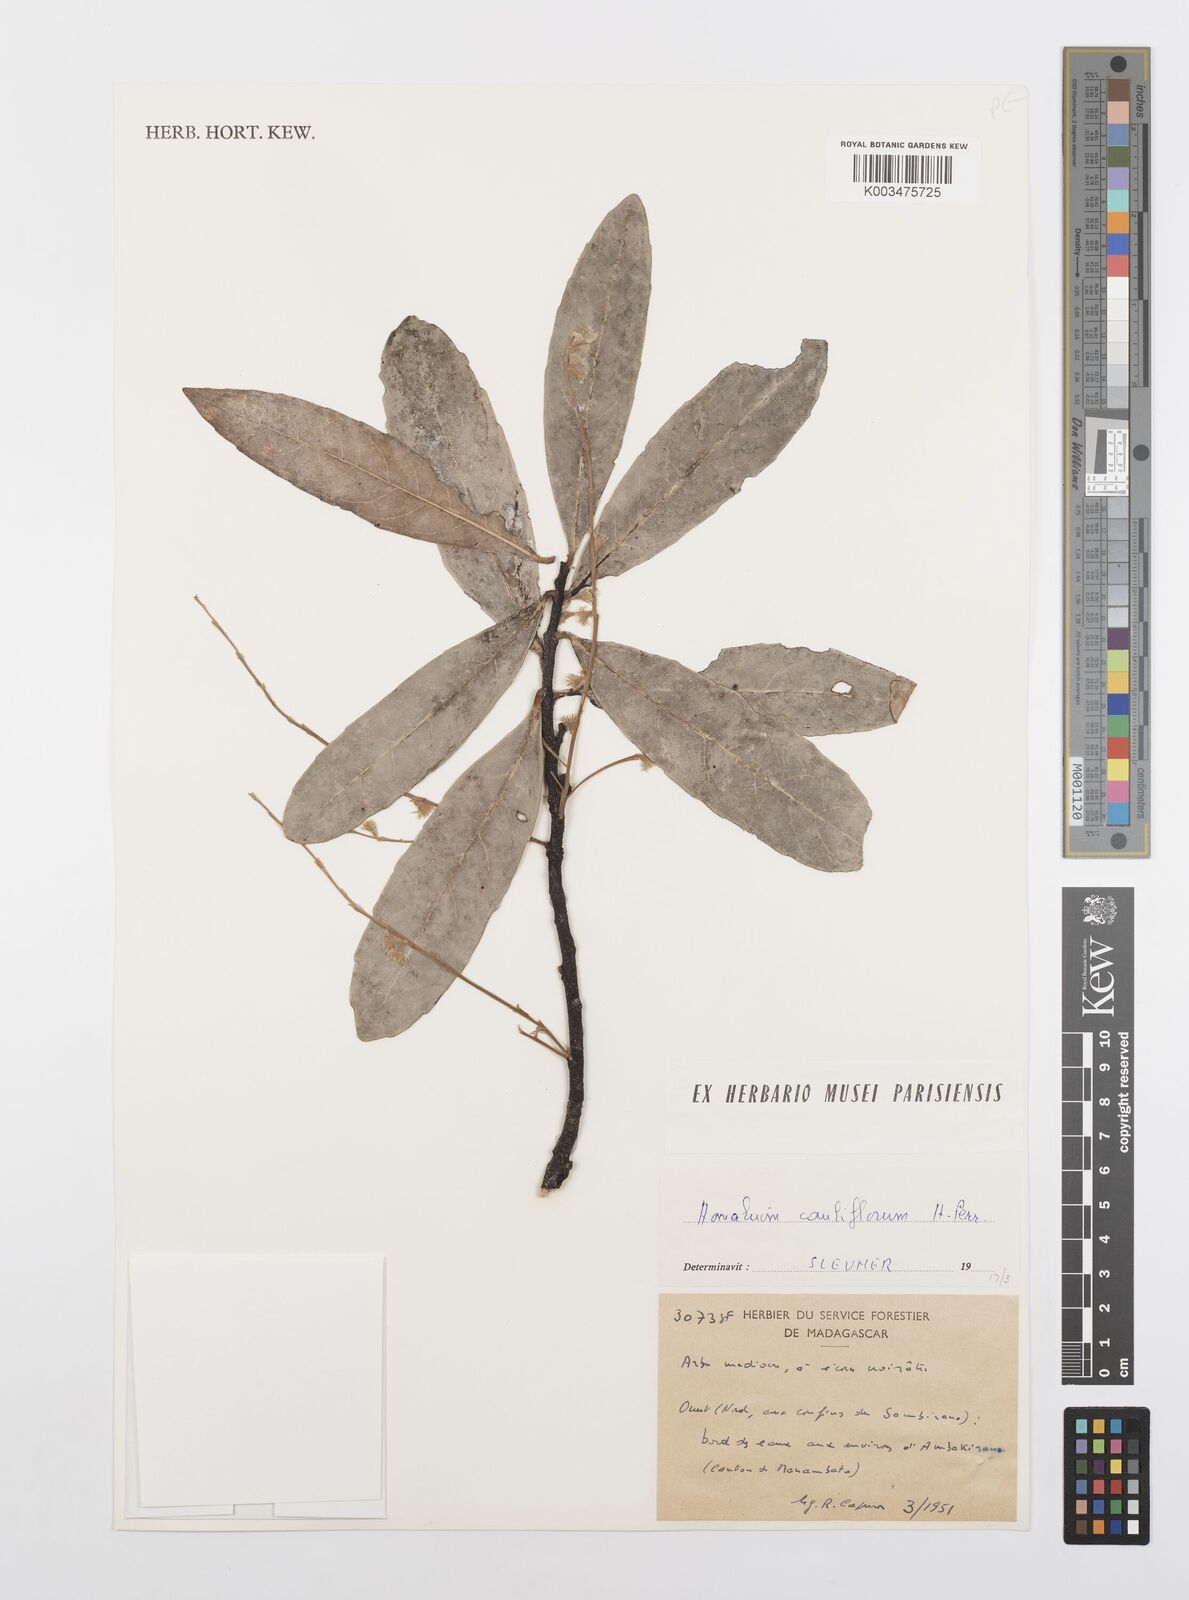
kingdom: Plantae
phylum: Tracheophyta
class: Magnoliopsida
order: Malpighiales
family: Salicaceae
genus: Homalium
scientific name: Homalium cauliflorum
